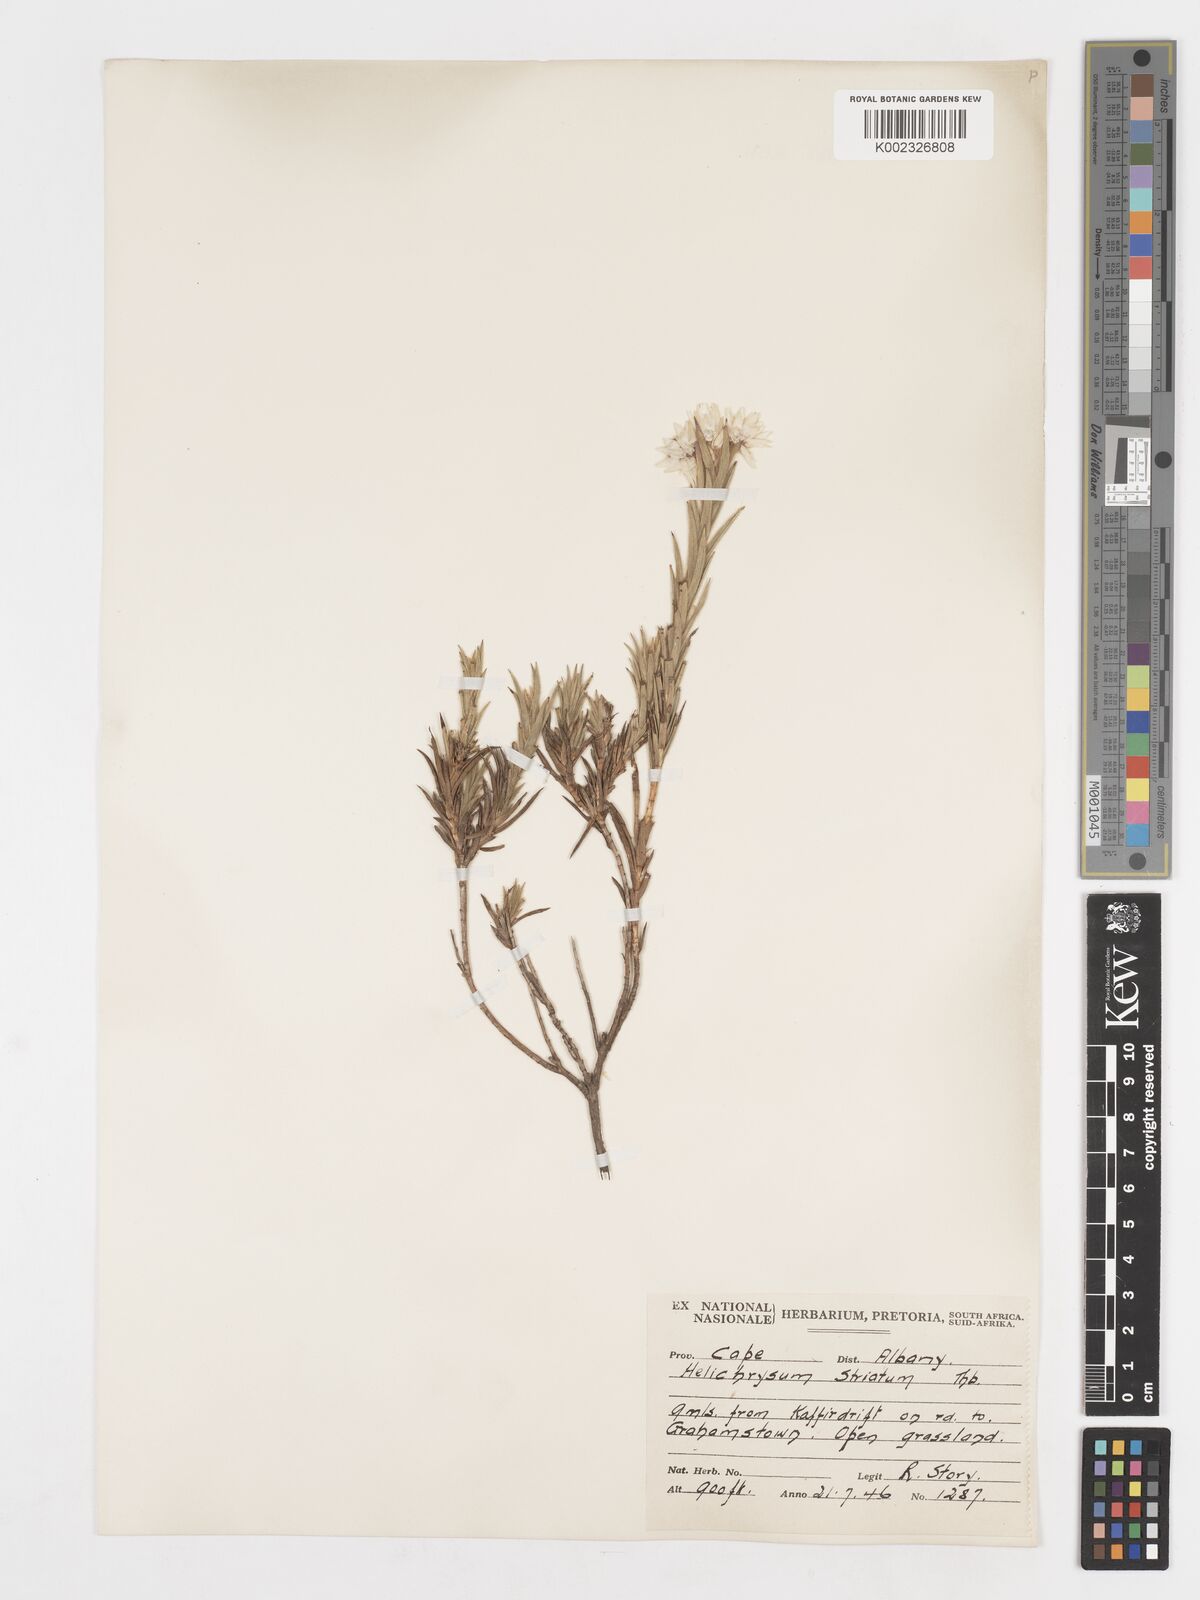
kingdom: Plantae
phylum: Tracheophyta
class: Magnoliopsida
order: Asterales
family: Asteraceae
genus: Achyranthemum
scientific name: Achyranthemum striatum
